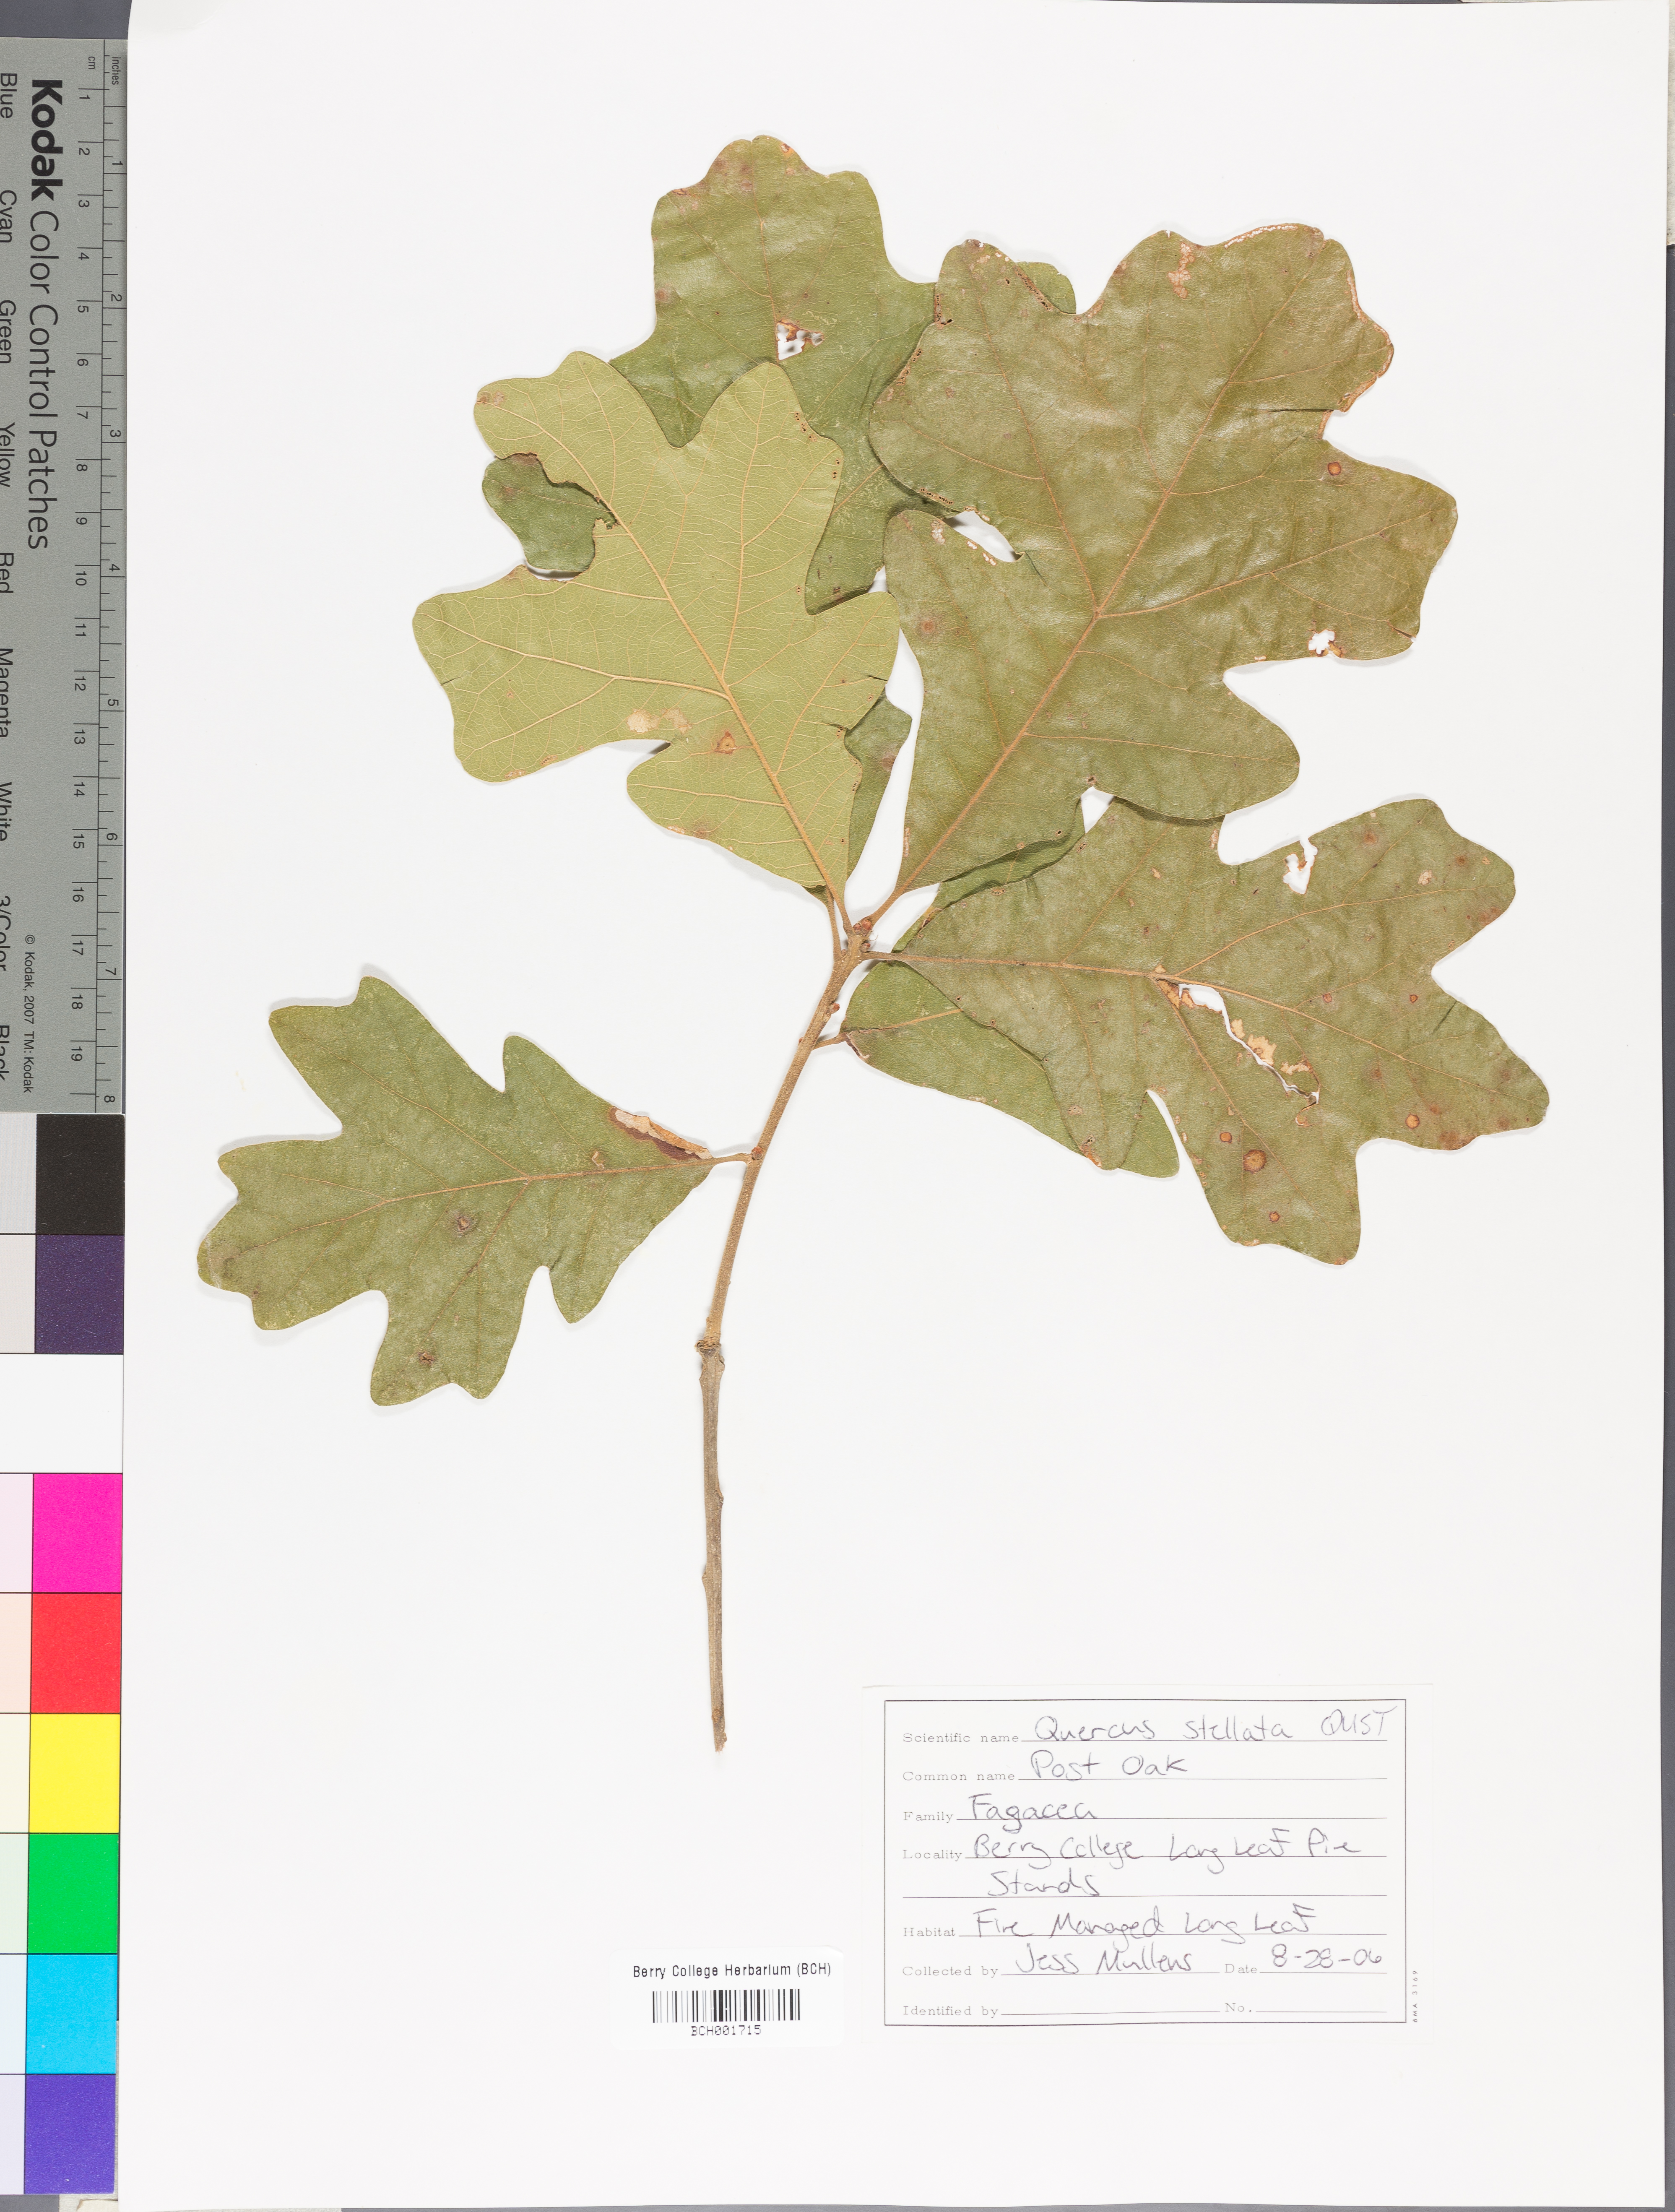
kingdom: Plantae
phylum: Tracheophyta
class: Magnoliopsida
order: Fagales
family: Fagaceae
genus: Quercus
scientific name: Quercus stellata
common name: Post oak
